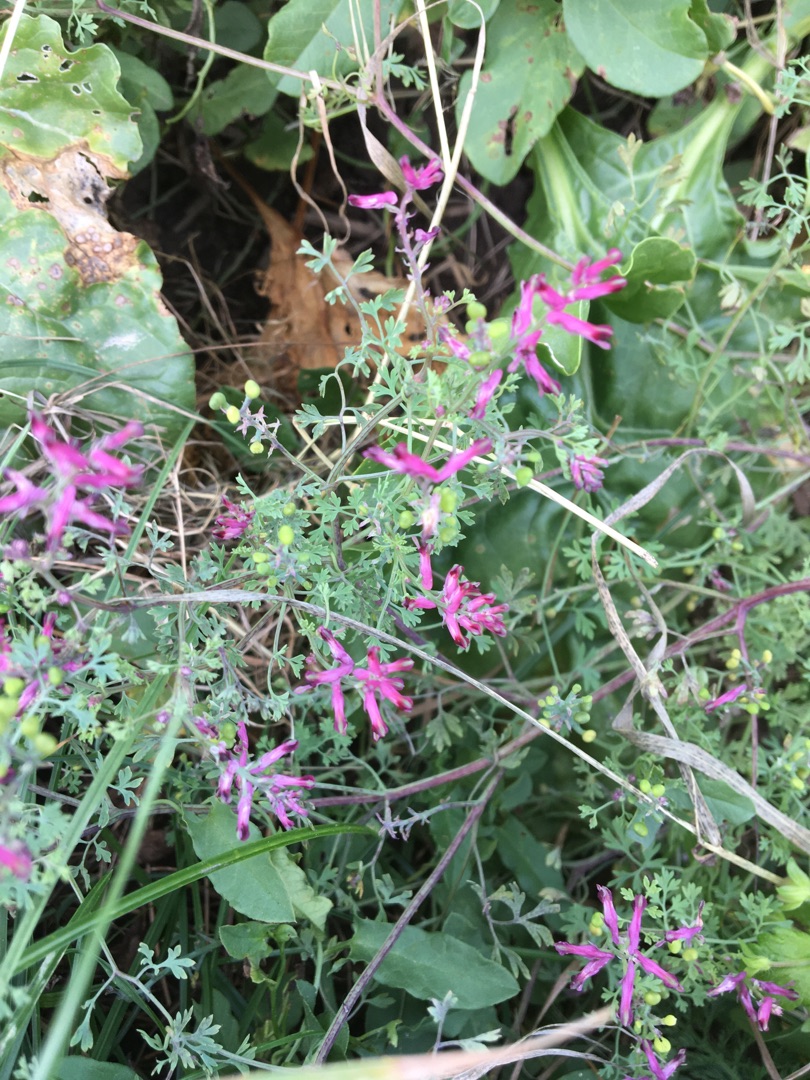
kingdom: Plantae
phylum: Tracheophyta
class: Magnoliopsida
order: Ranunculales
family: Papaveraceae
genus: Fumaria
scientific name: Fumaria officinalis
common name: Læge-jordrøg
